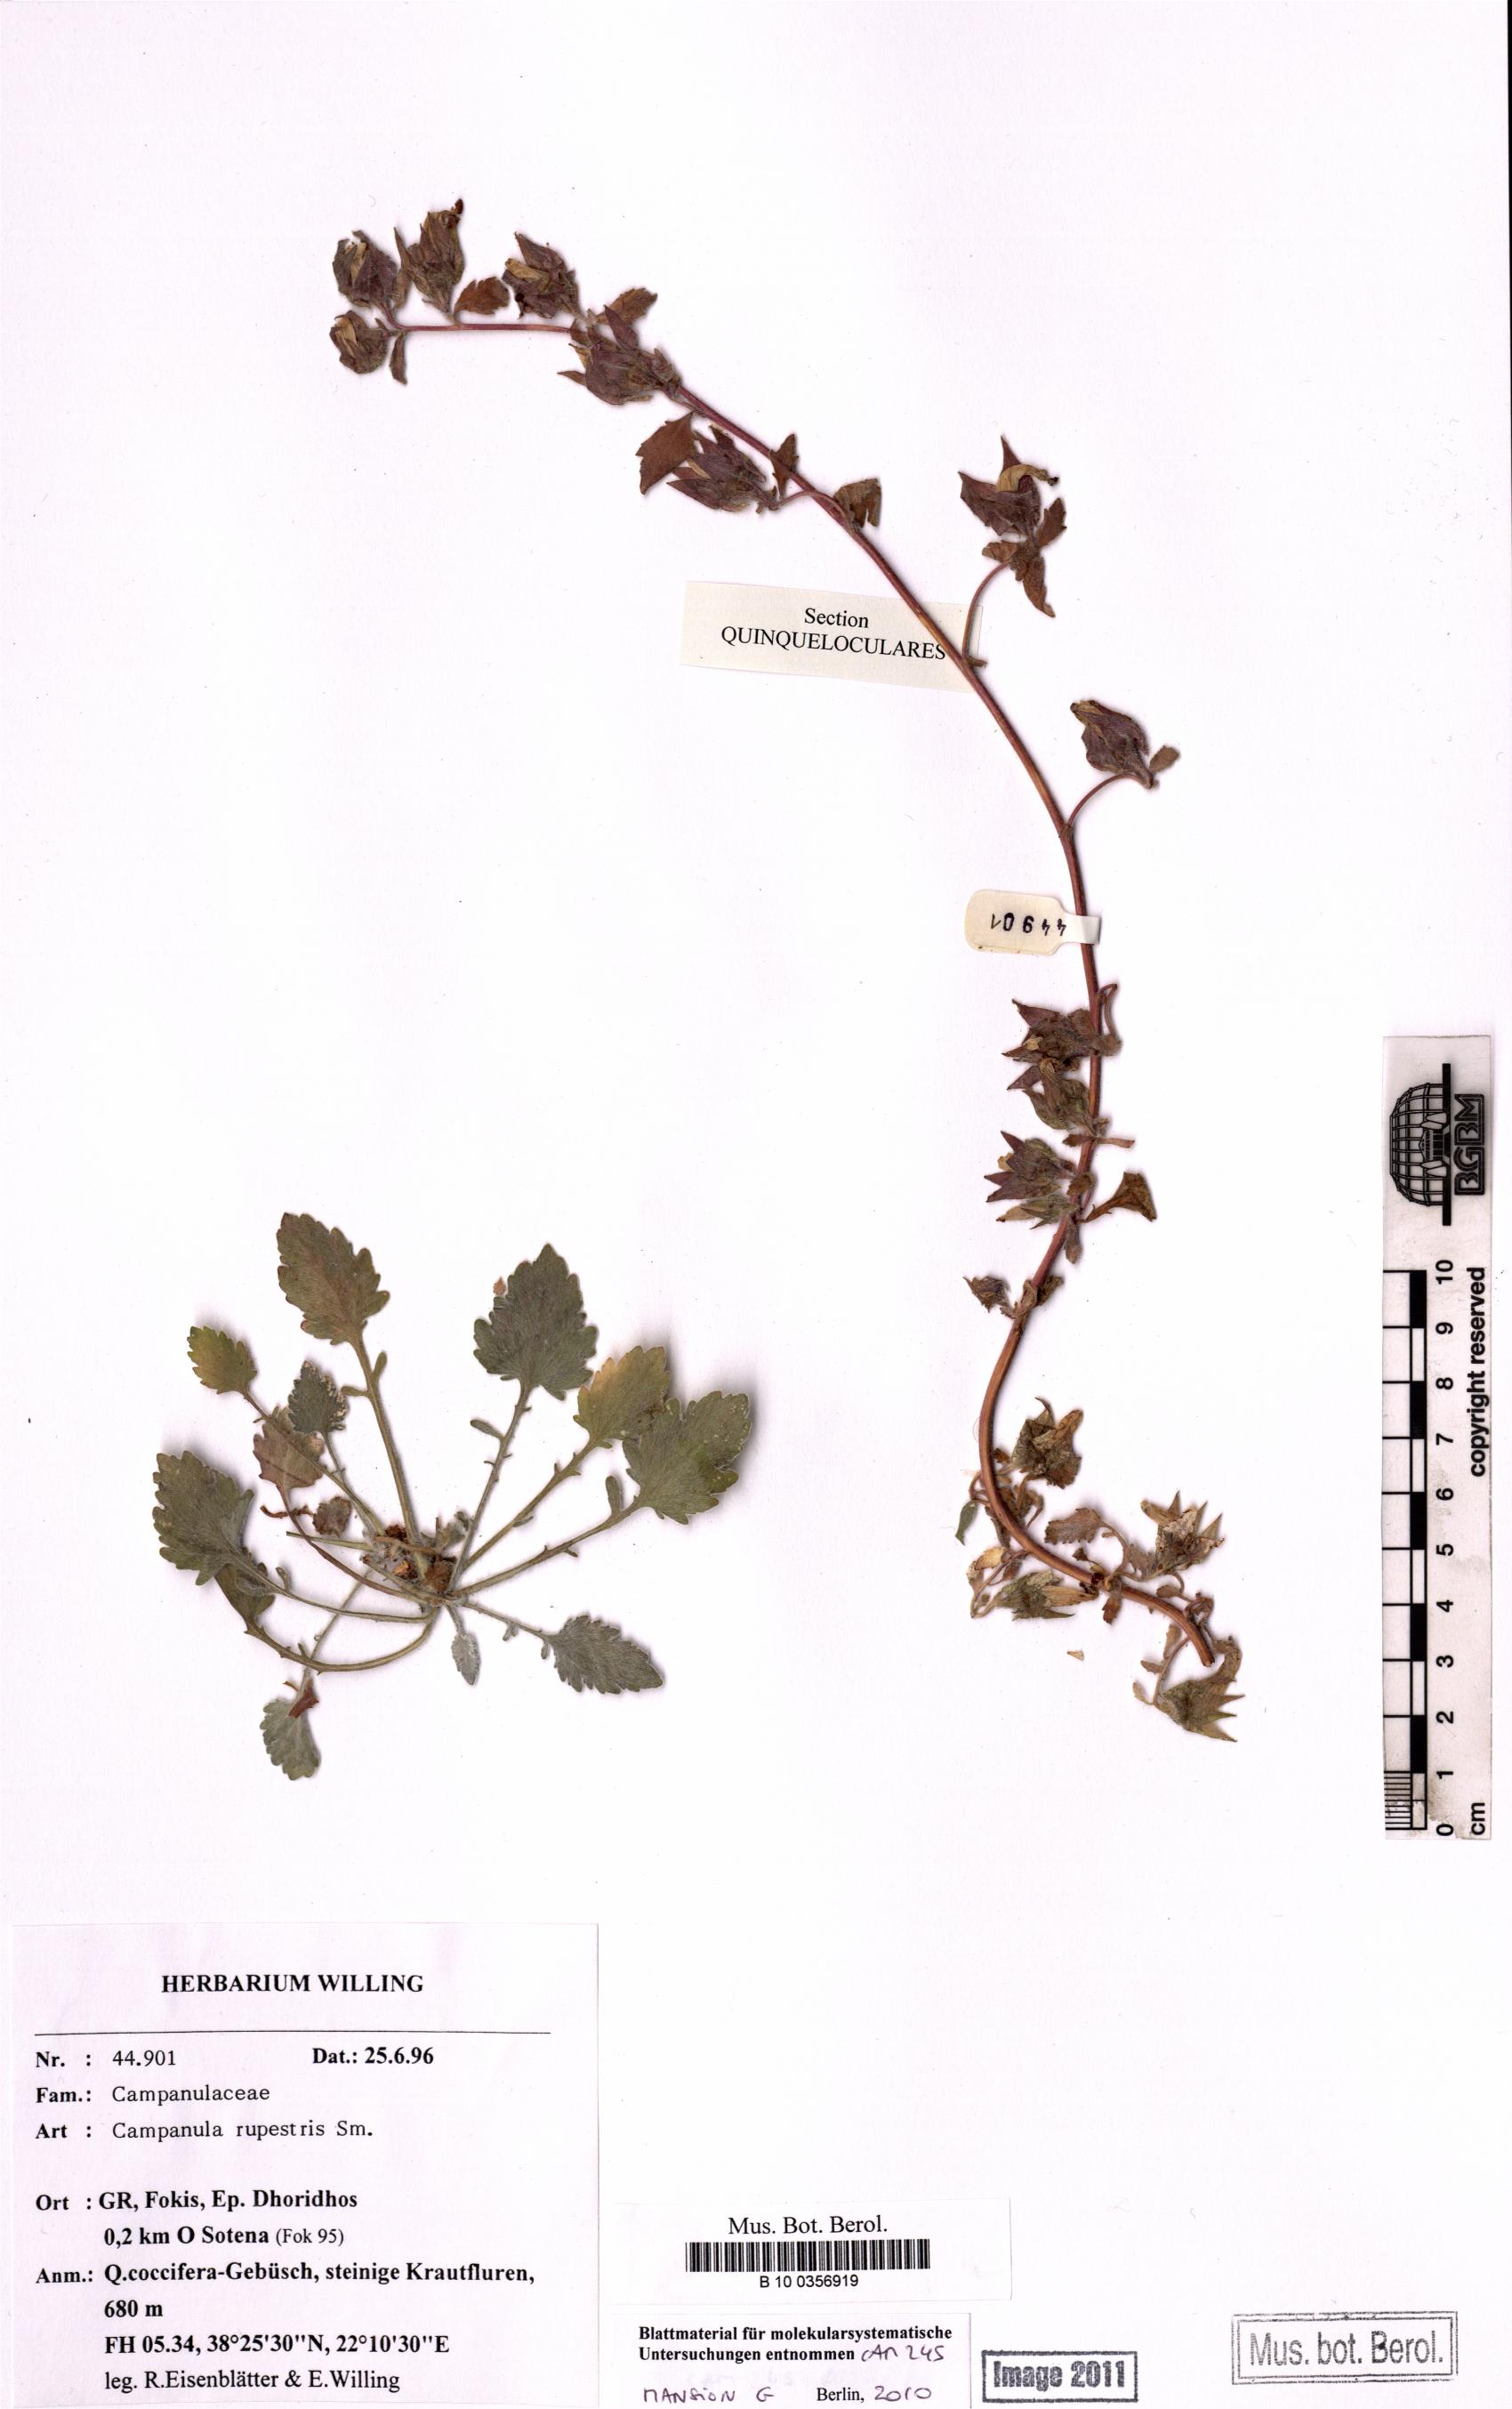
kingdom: Plantae
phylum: Tracheophyta
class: Magnoliopsida
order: Asterales
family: Campanulaceae
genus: Campanula
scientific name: Campanula rupestris
